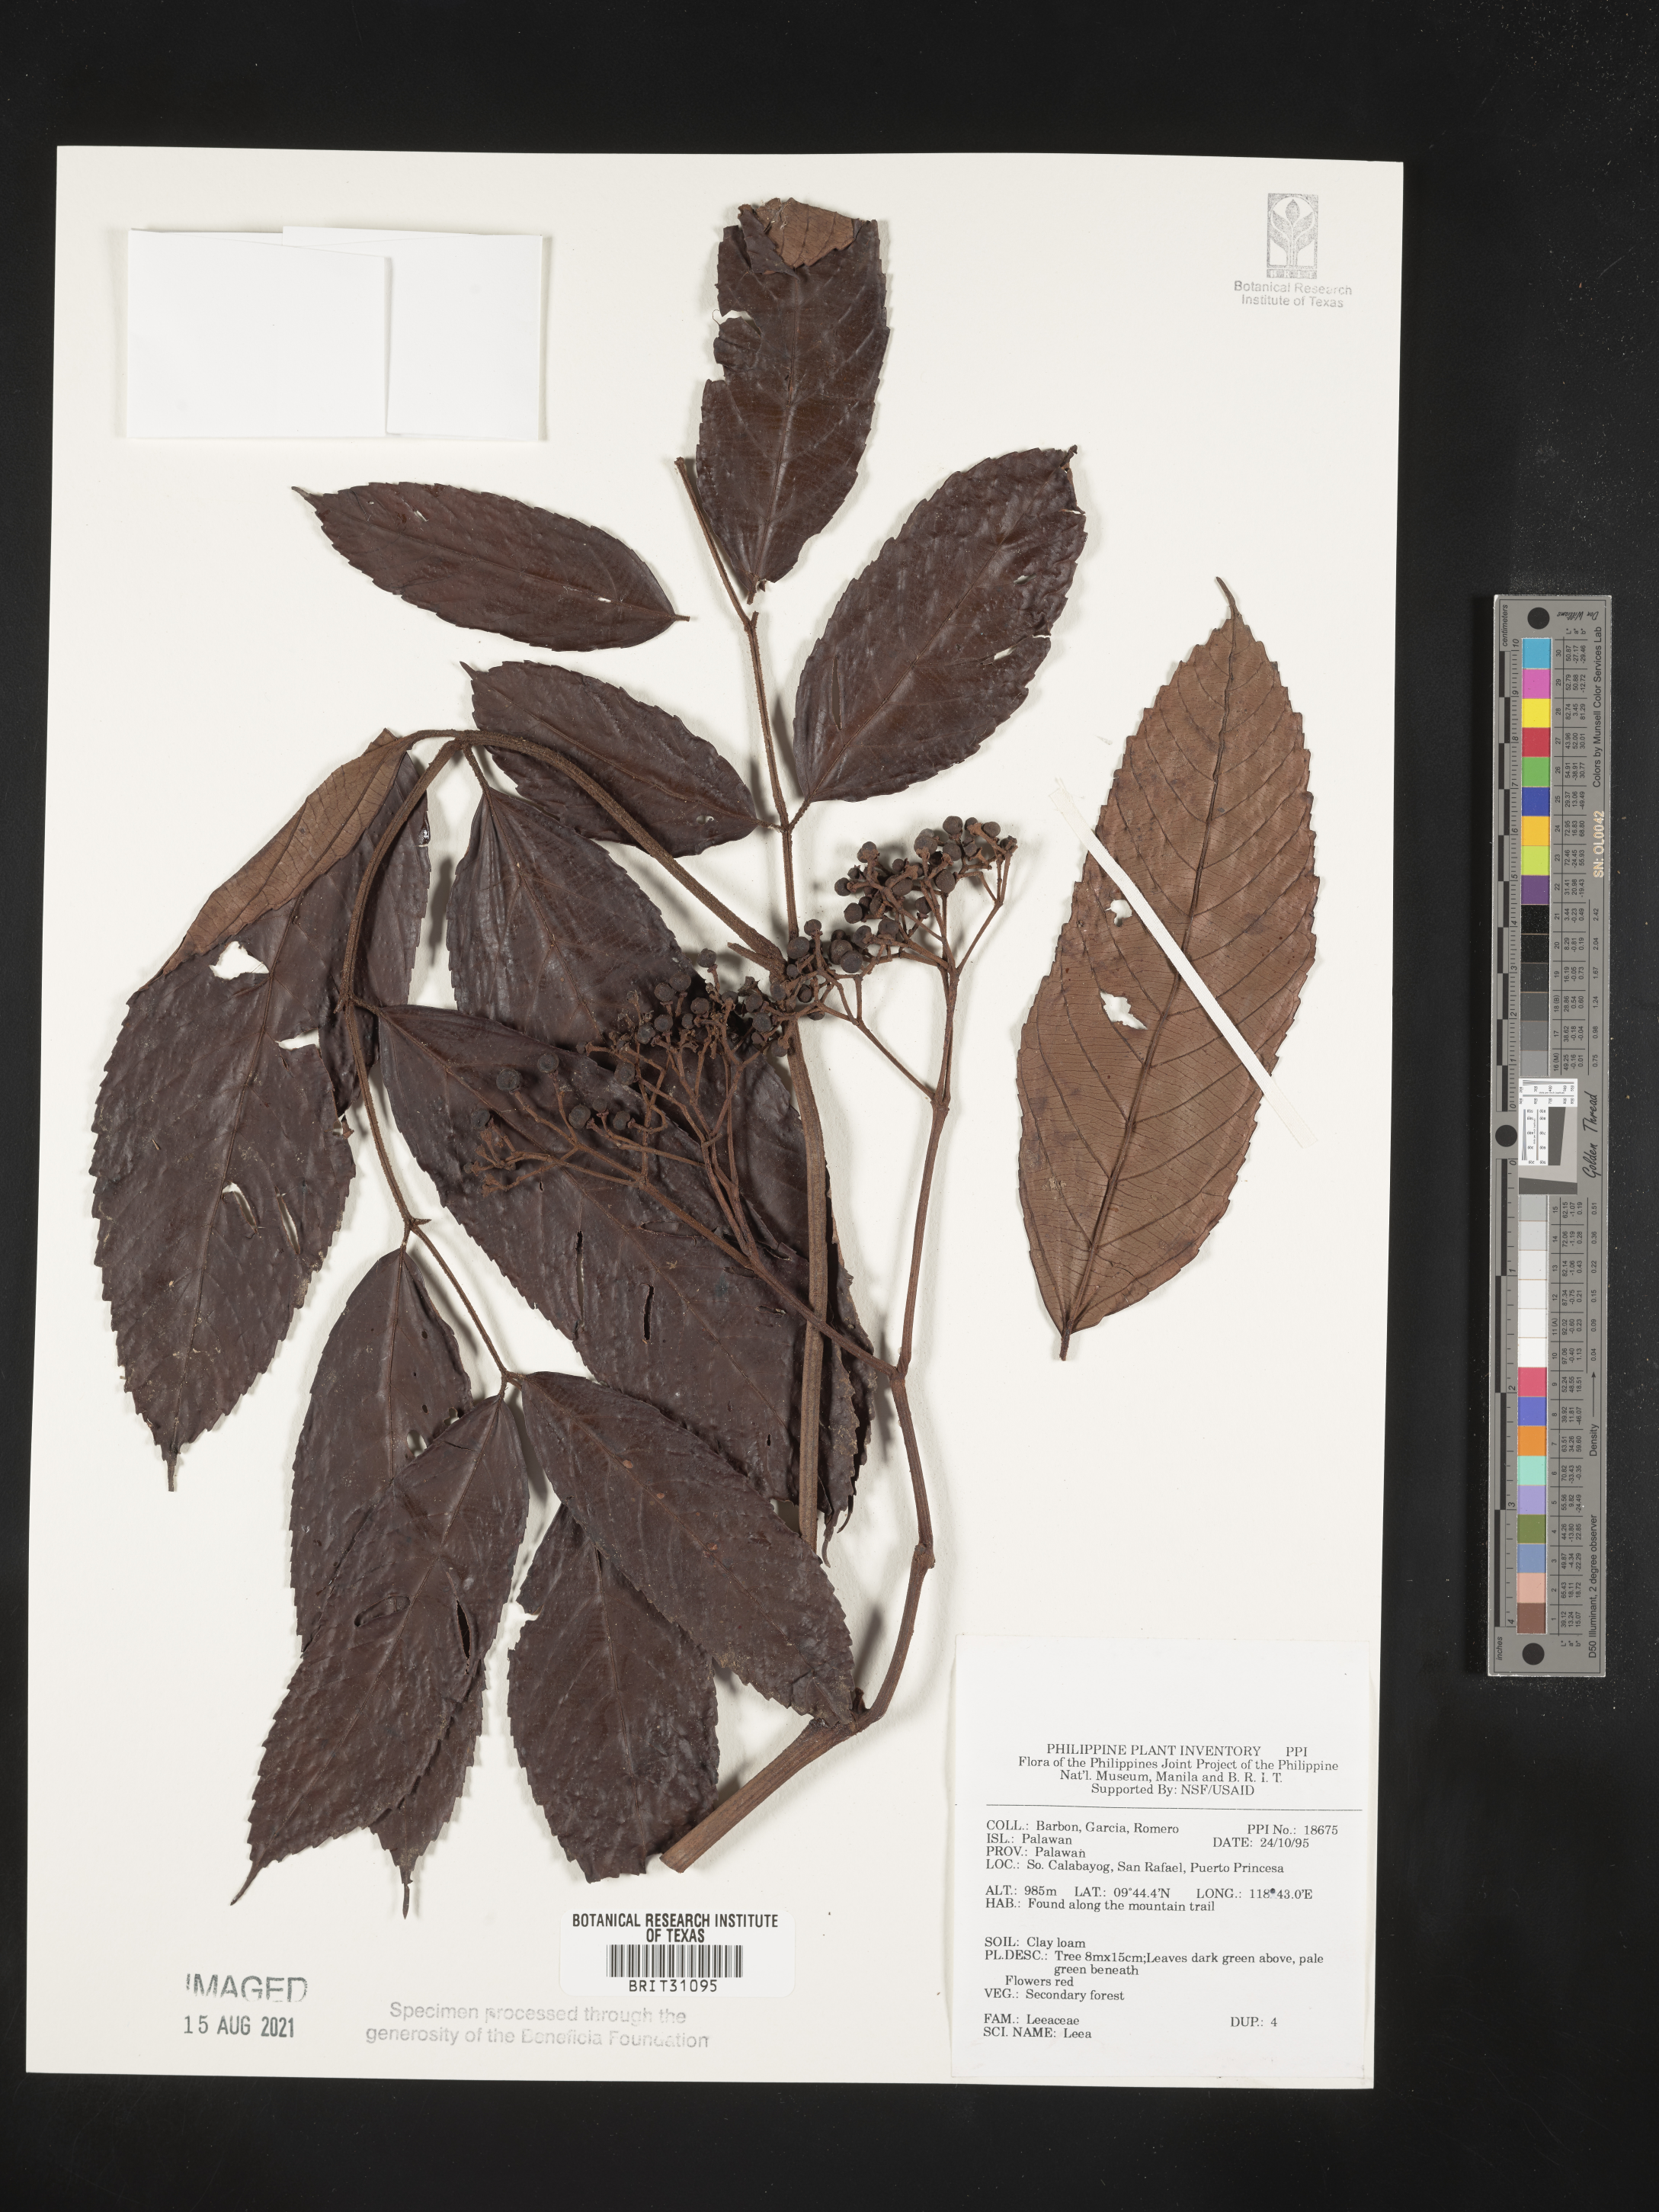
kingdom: Plantae
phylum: Tracheophyta
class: Magnoliopsida
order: Vitales
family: Vitaceae
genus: Leea
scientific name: Leea
